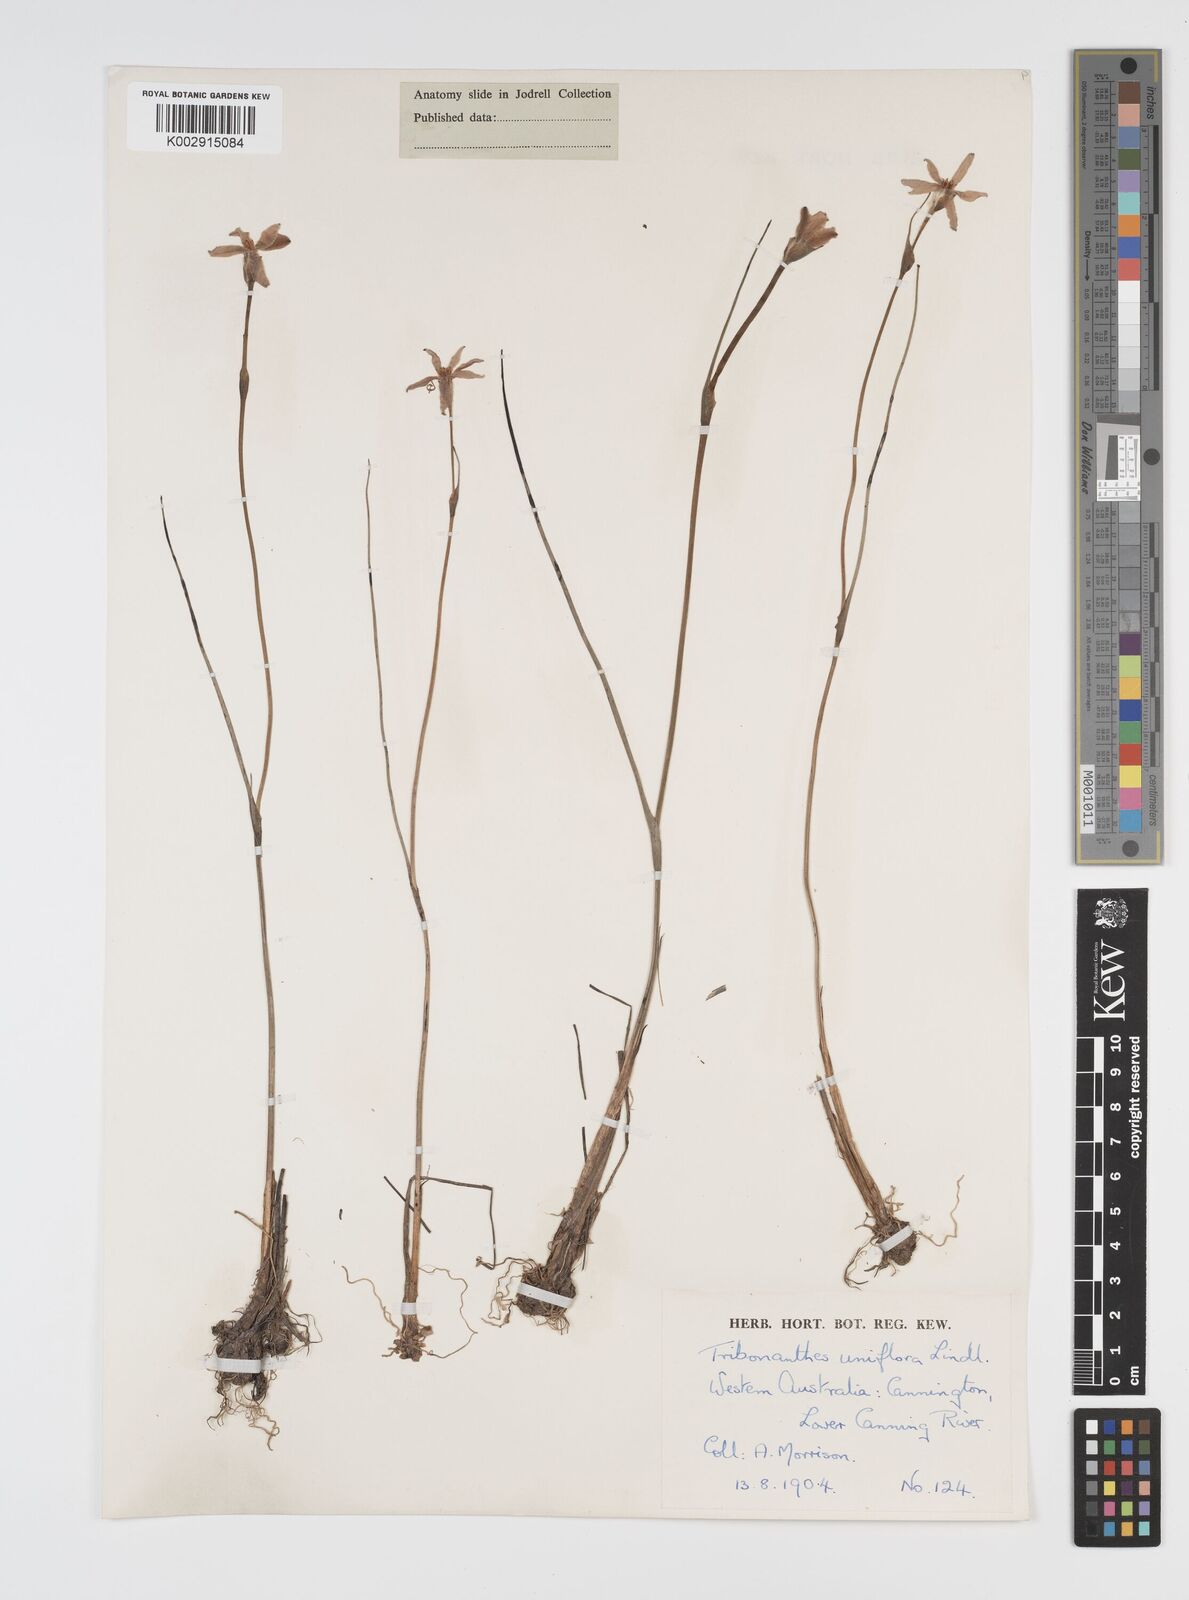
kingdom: Plantae
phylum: Tracheophyta
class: Liliopsida
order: Commelinales
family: Haemodoraceae
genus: Tribonanthes
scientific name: Tribonanthes uniflora
